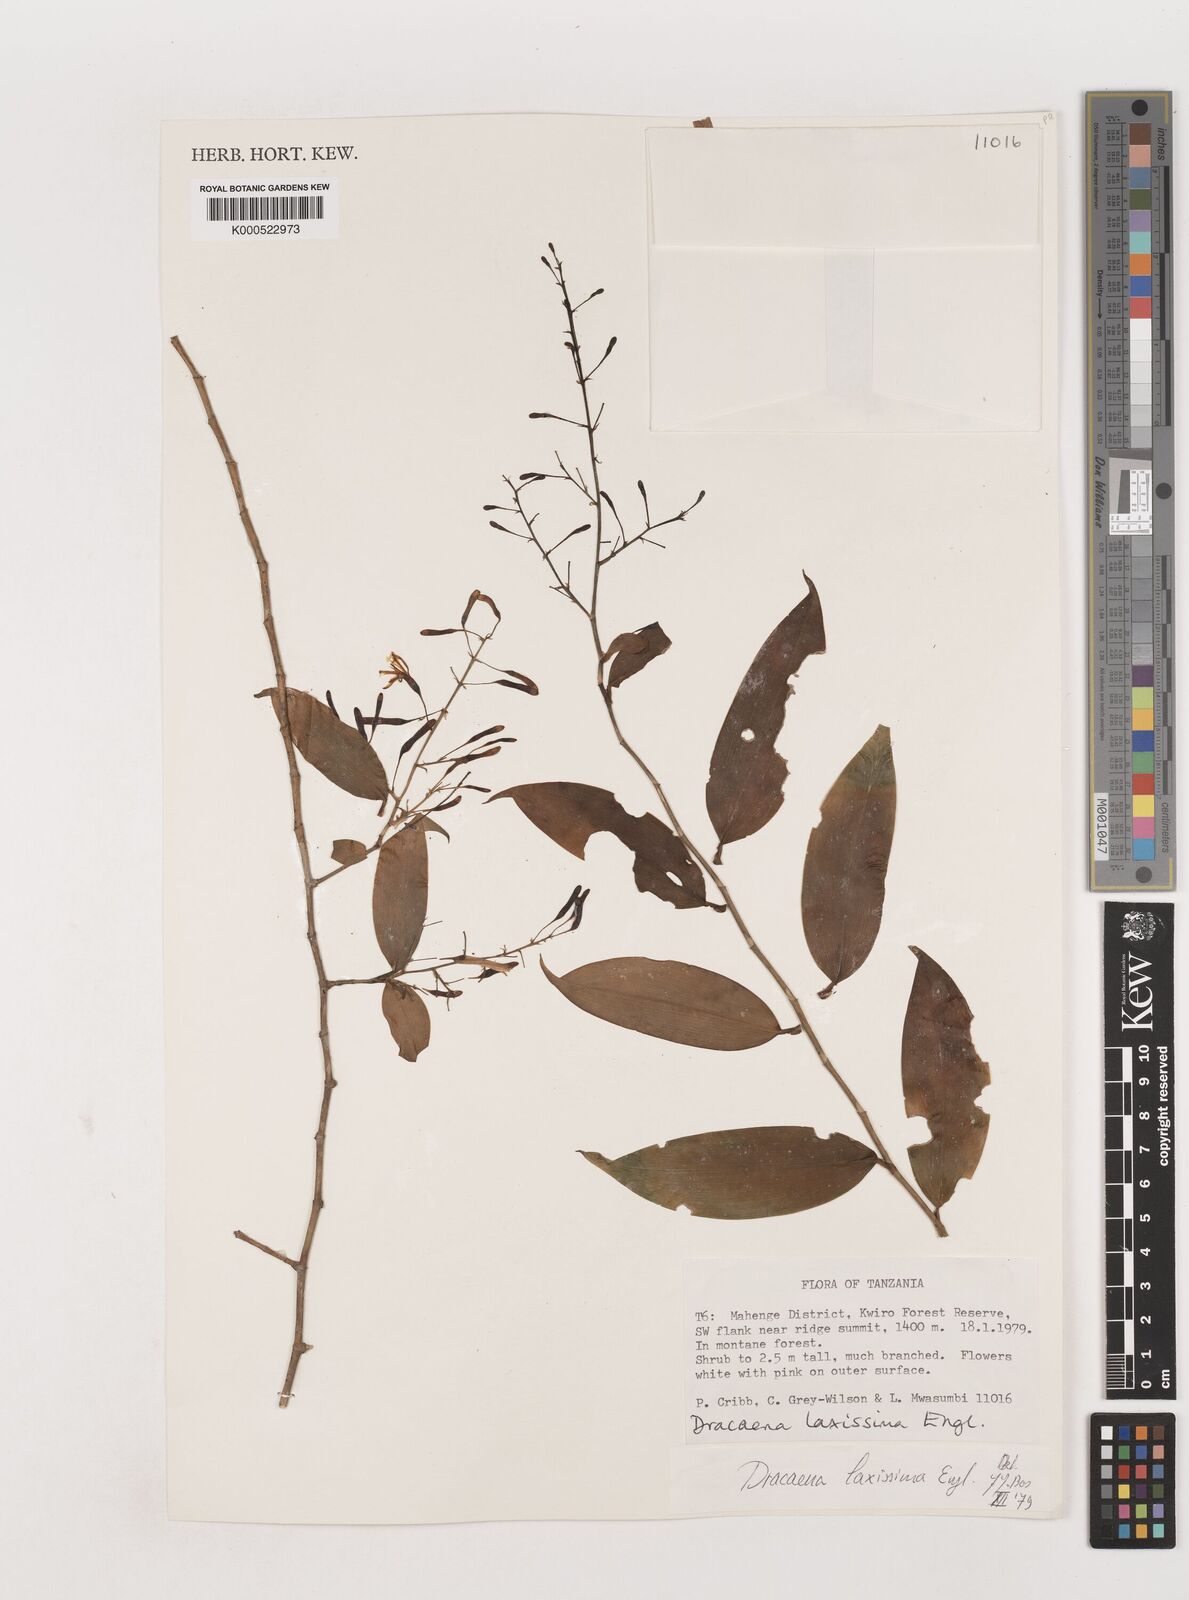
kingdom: Plantae
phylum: Tracheophyta
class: Liliopsida
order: Asparagales
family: Asparagaceae
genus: Dracaena
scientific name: Dracaena laxissima
